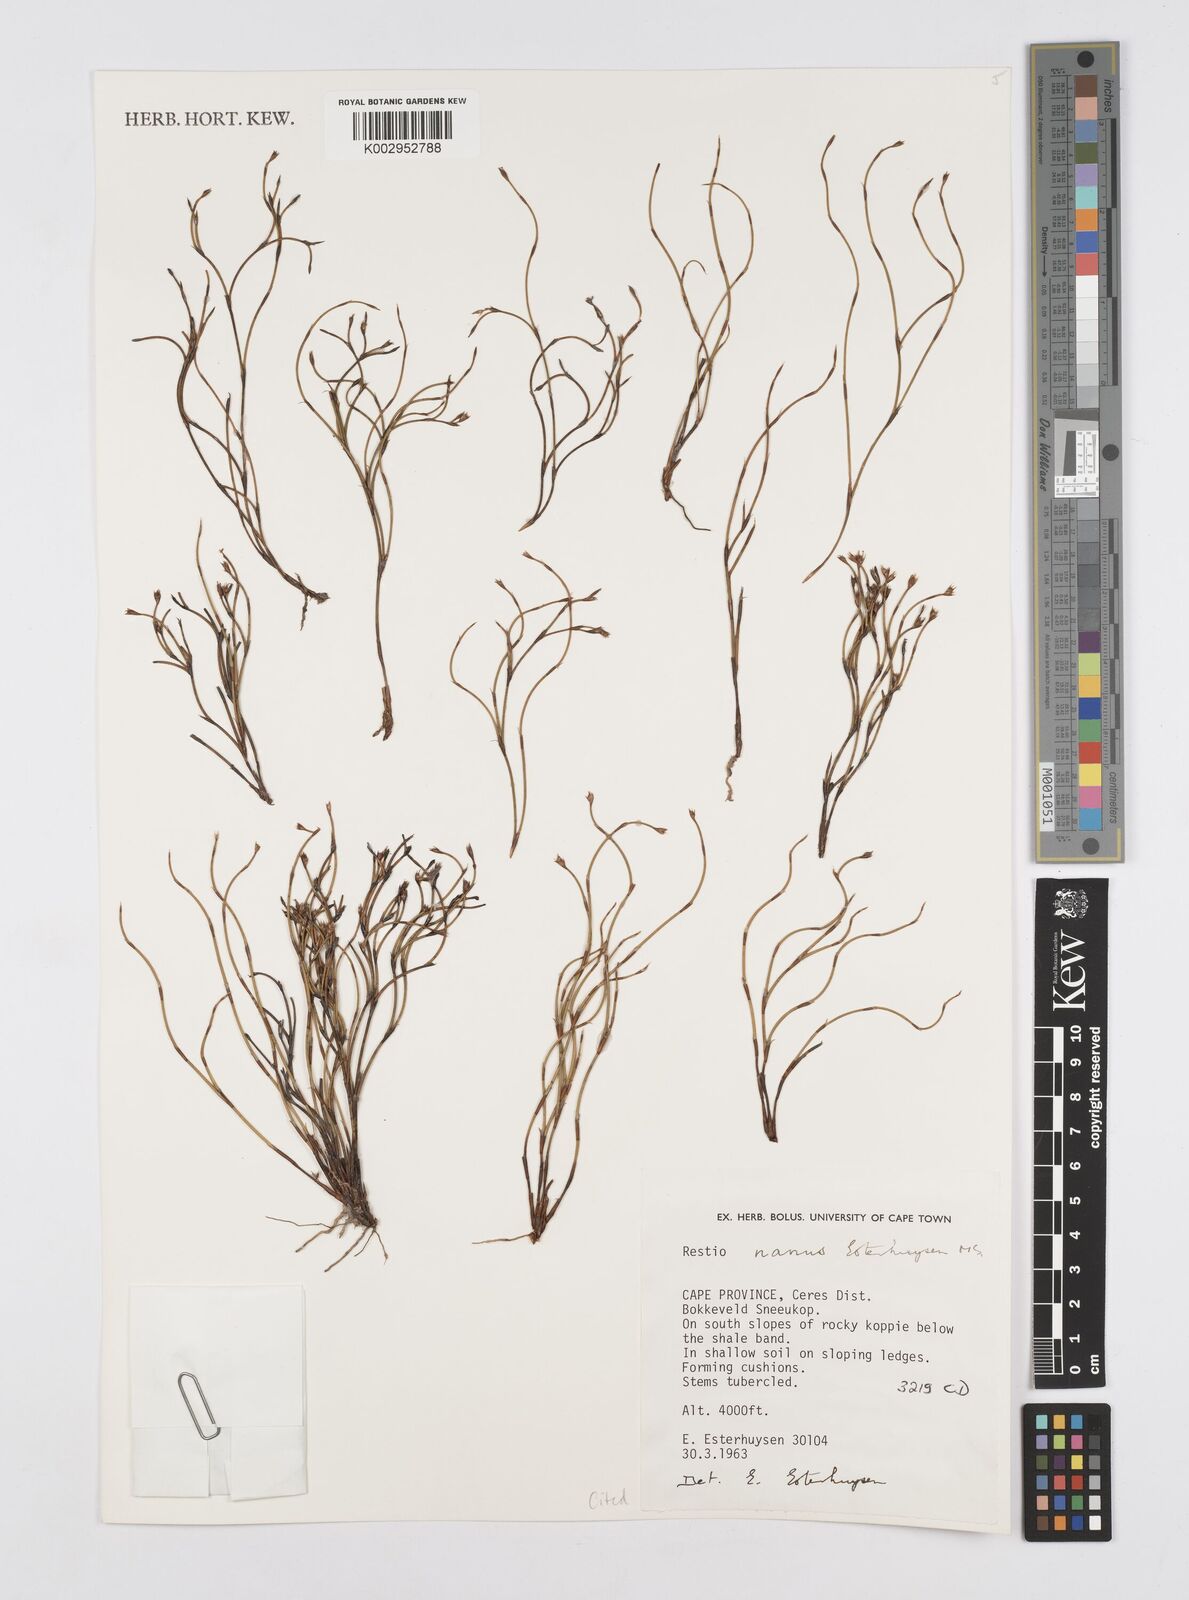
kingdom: Plantae
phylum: Tracheophyta
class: Liliopsida
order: Poales
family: Restionaceae
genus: Restio
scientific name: Restio nanus
